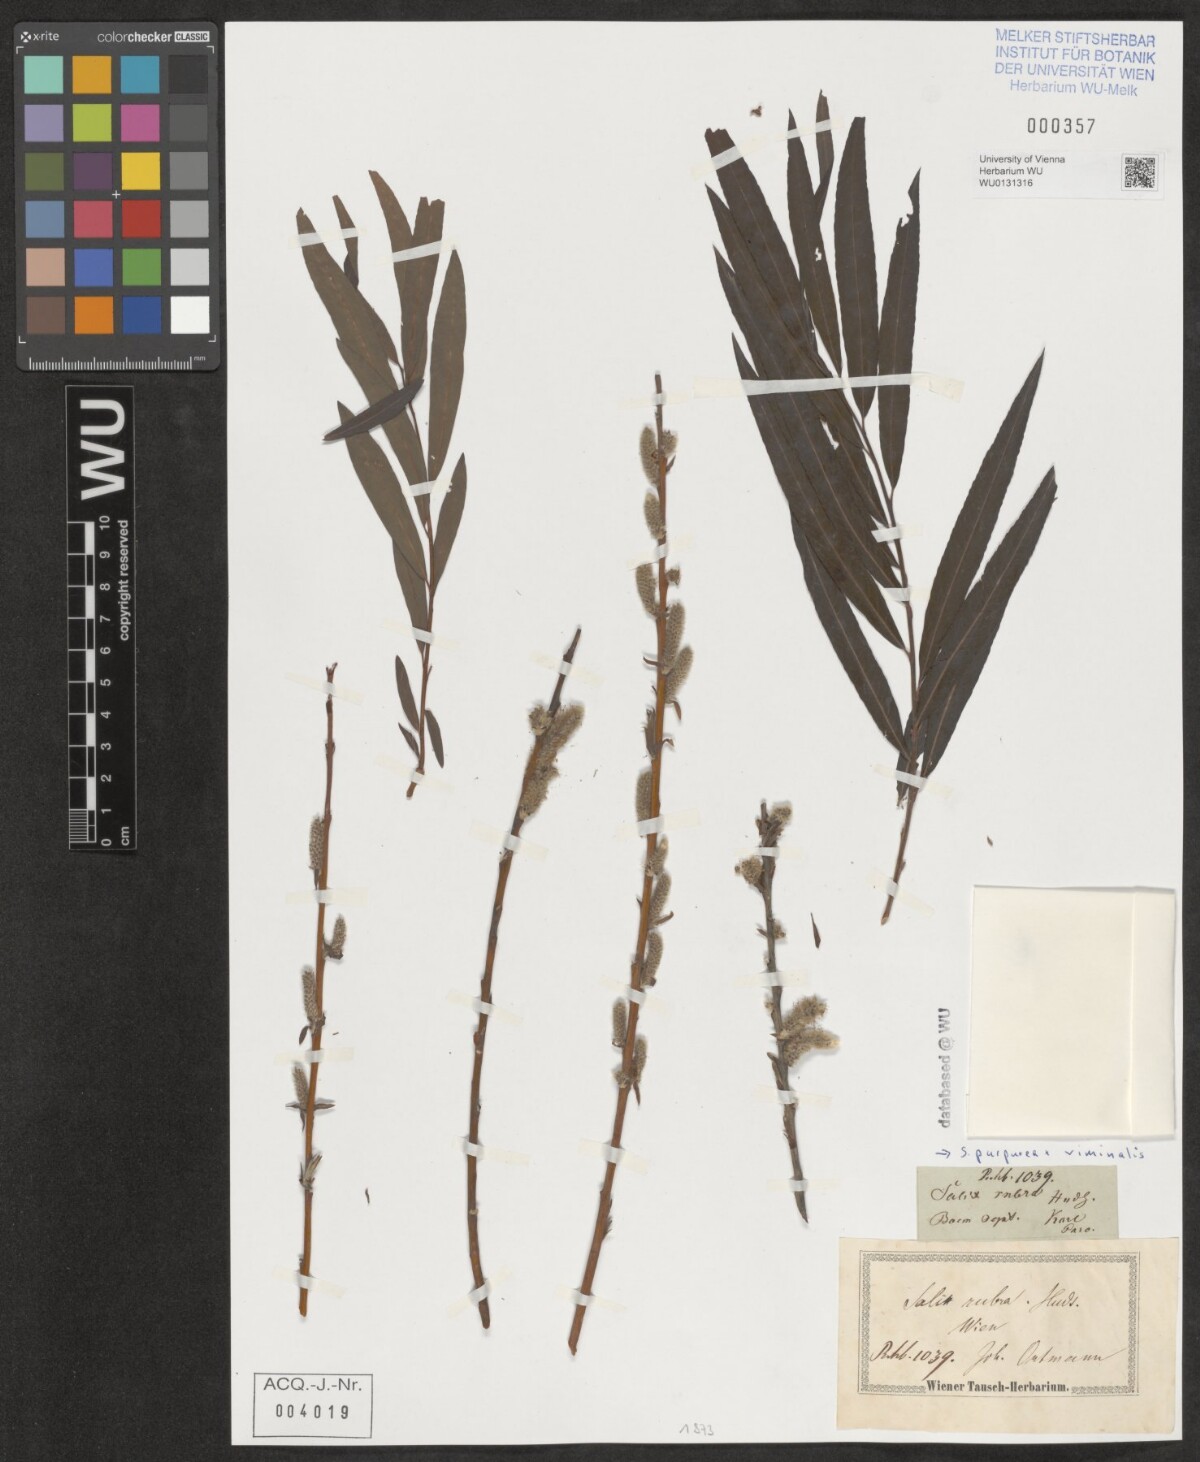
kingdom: Plantae
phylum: Tracheophyta
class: Magnoliopsida
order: Malpighiales
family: Salicaceae
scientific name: Salicaceae
